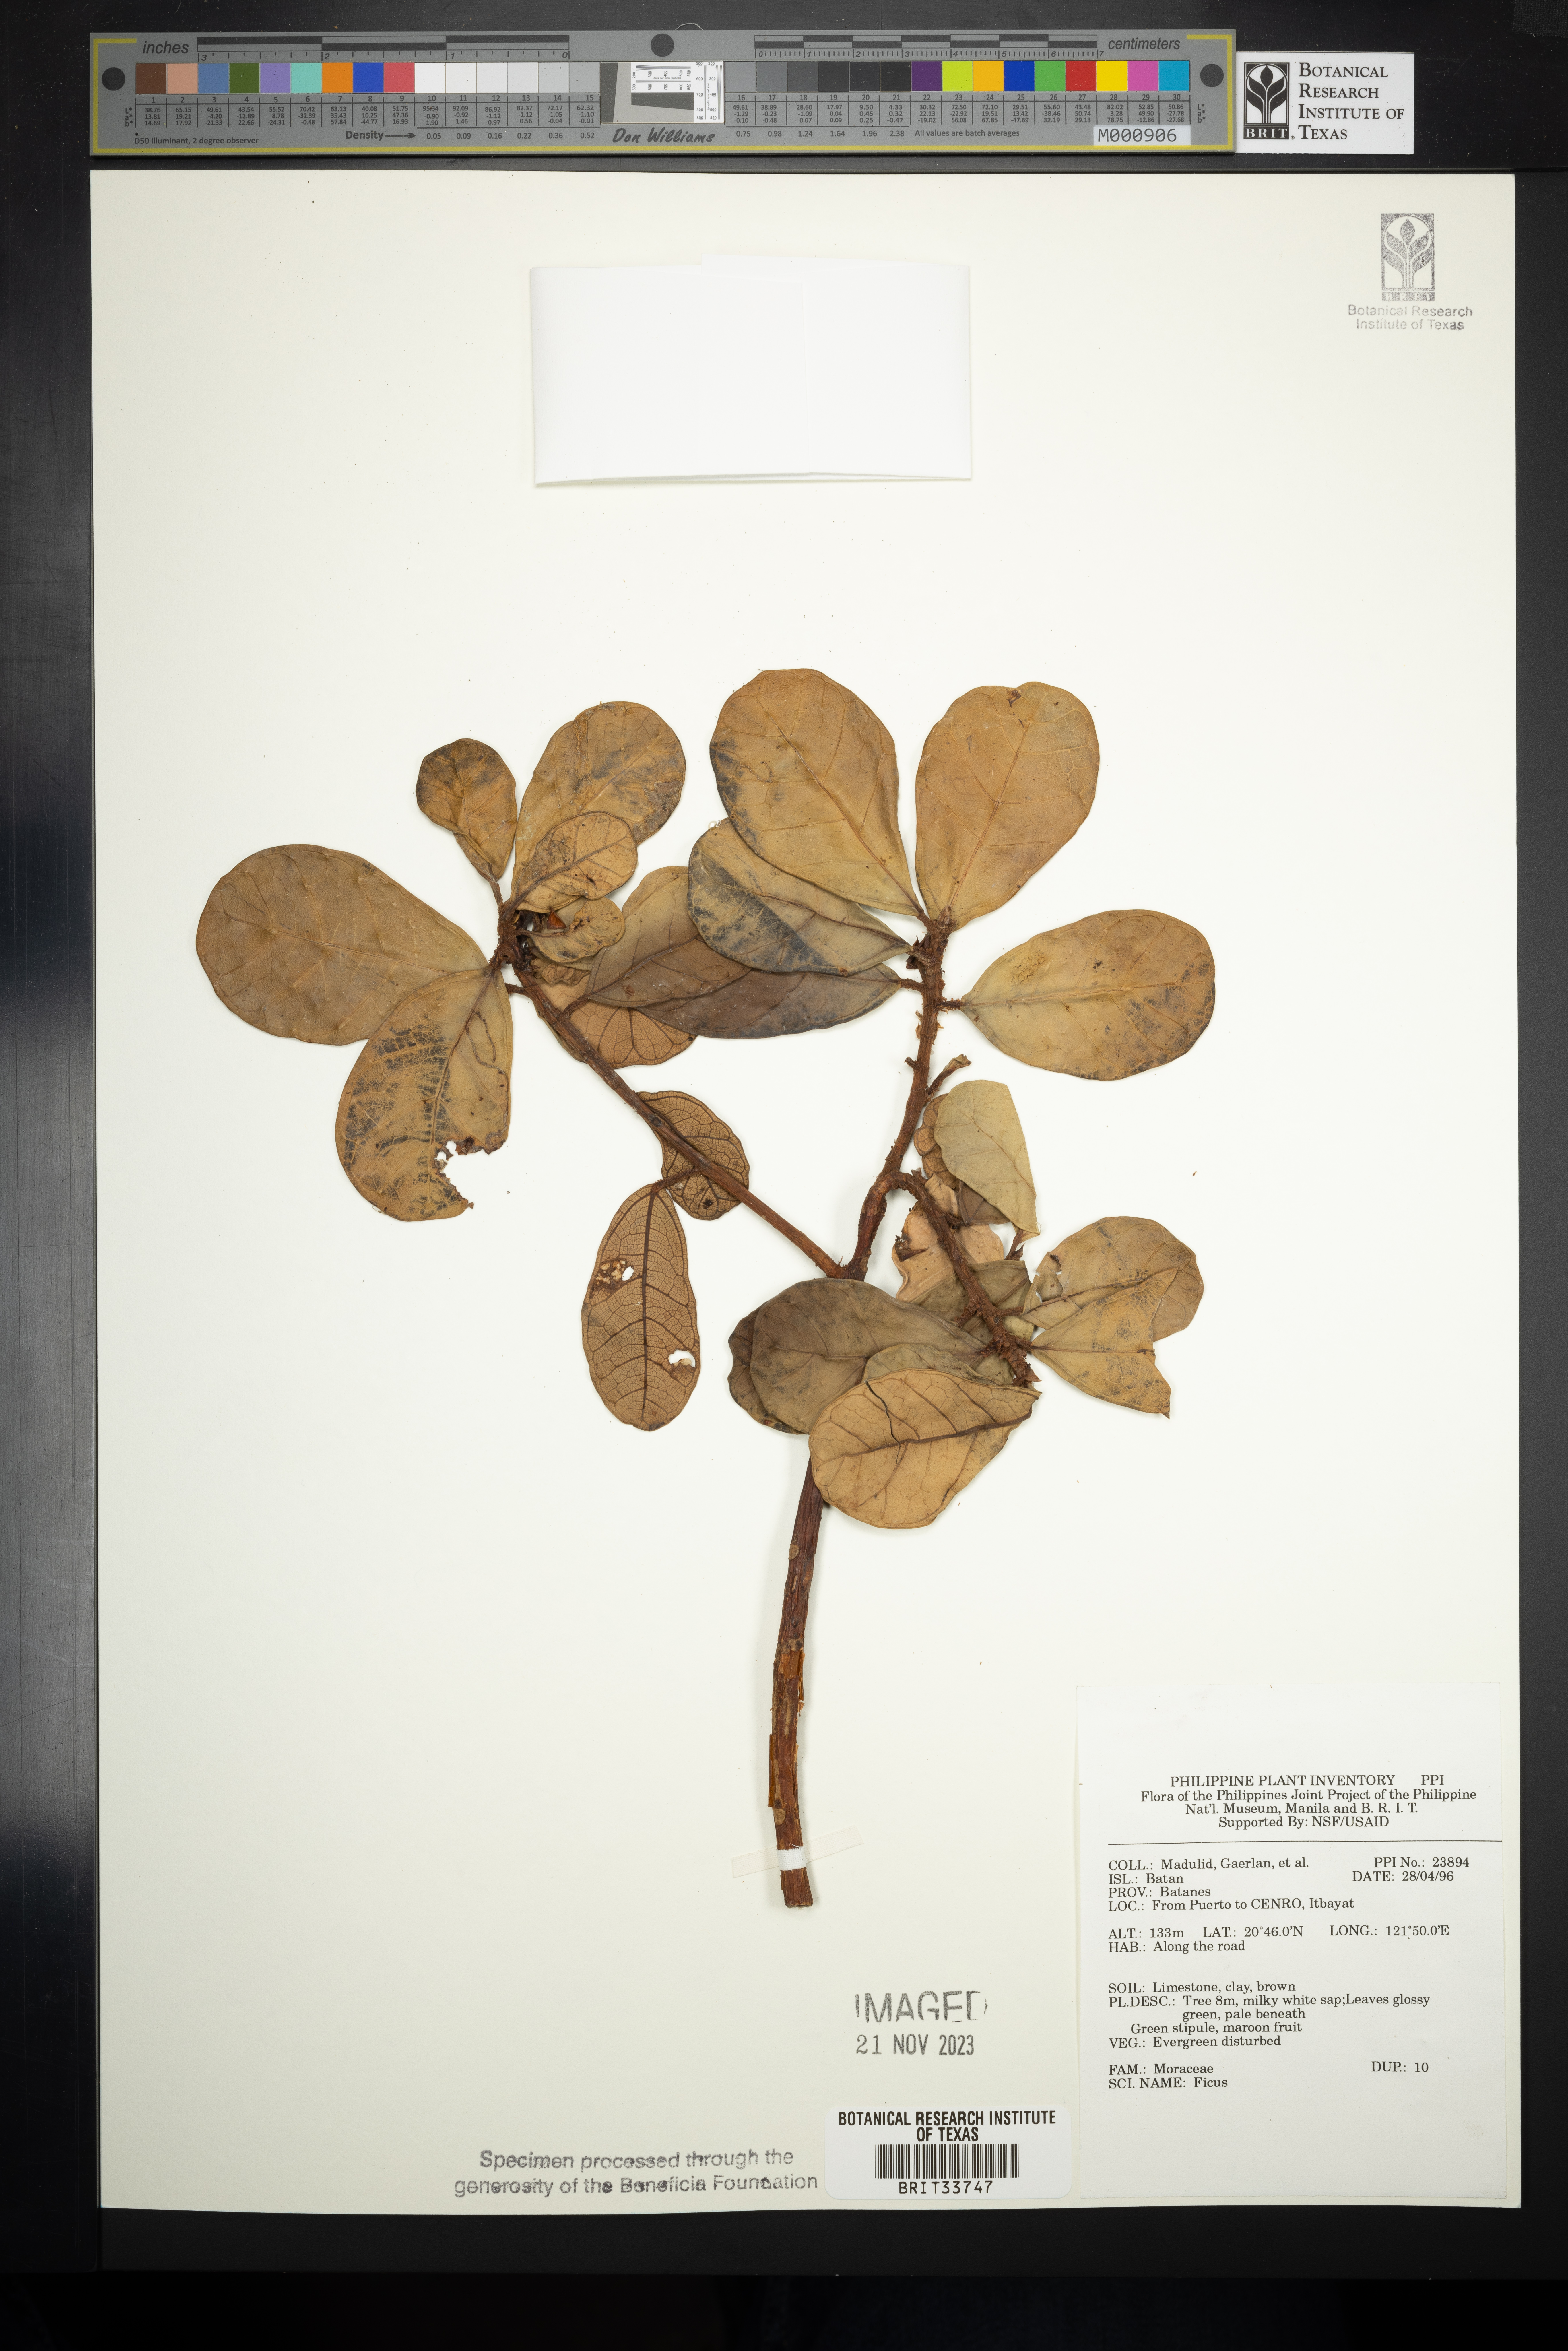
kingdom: Plantae
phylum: Tracheophyta
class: Magnoliopsida
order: Rosales
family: Moraceae
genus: Ficus
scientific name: Ficus
